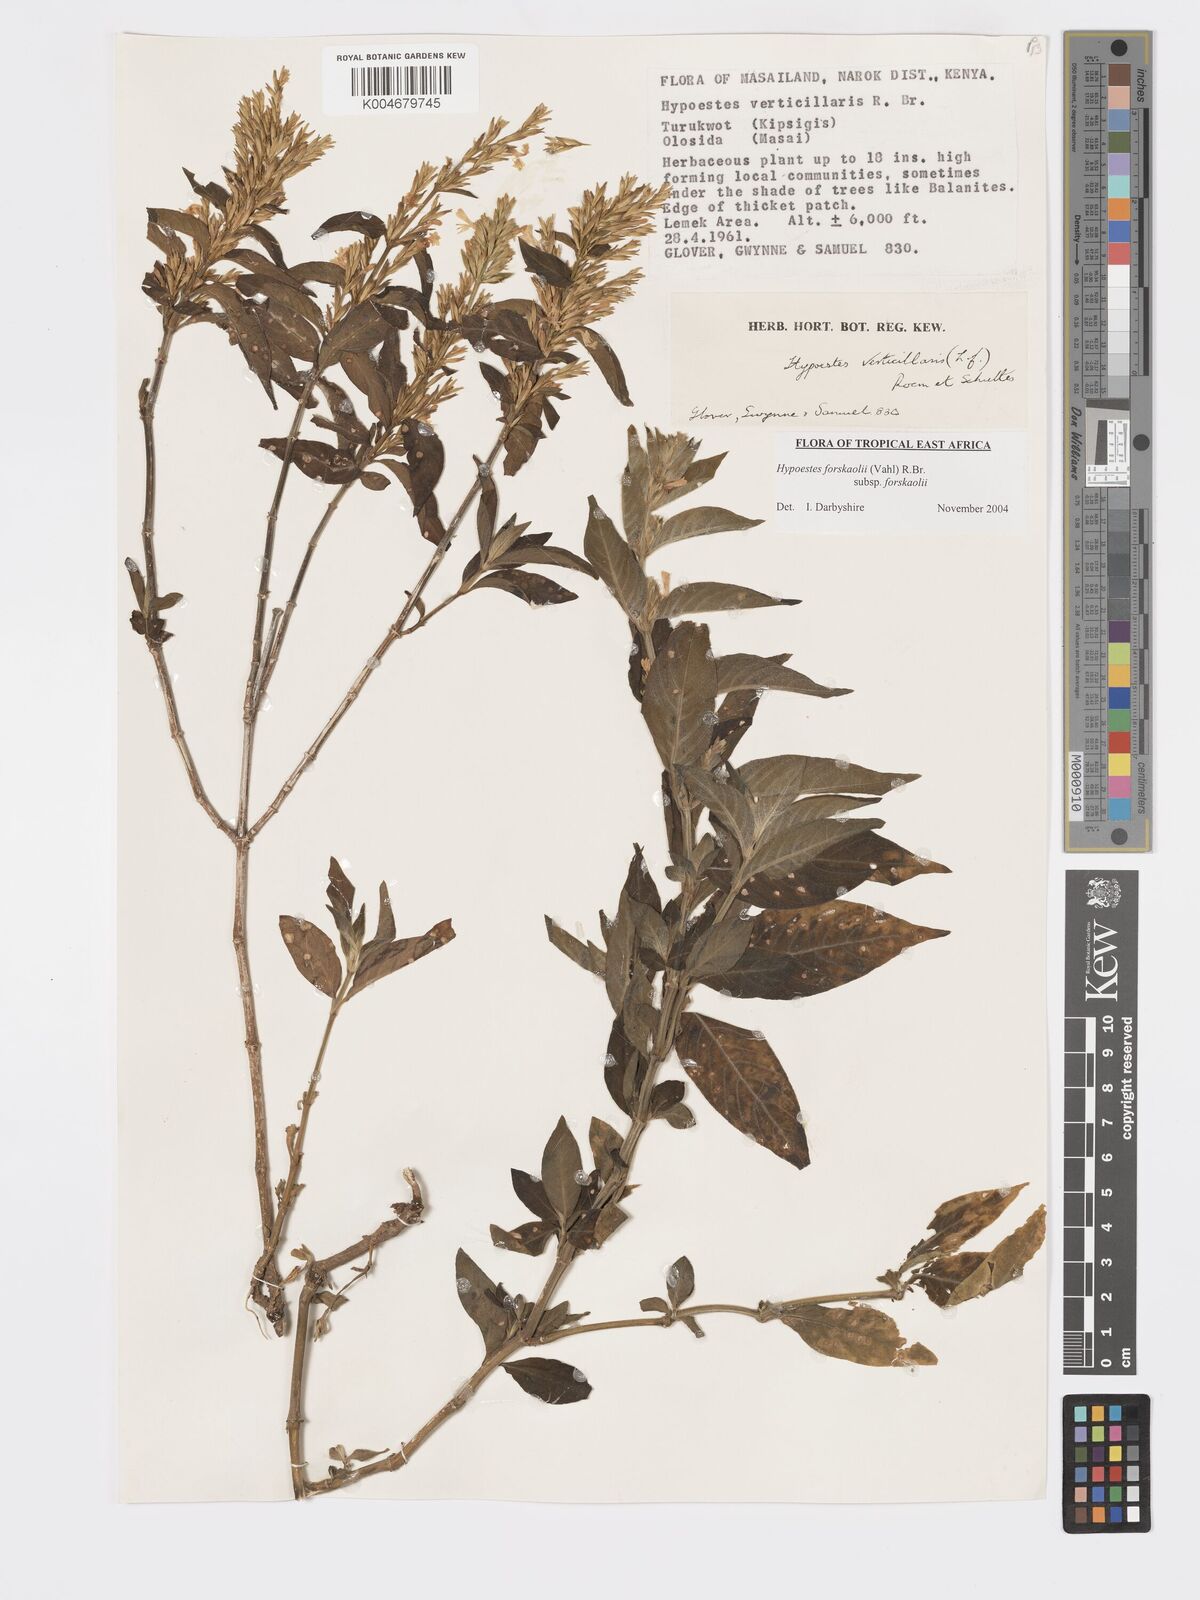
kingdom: Plantae
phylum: Tracheophyta
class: Magnoliopsida
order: Lamiales
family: Acanthaceae
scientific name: Acanthaceae
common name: Acanthaceae
